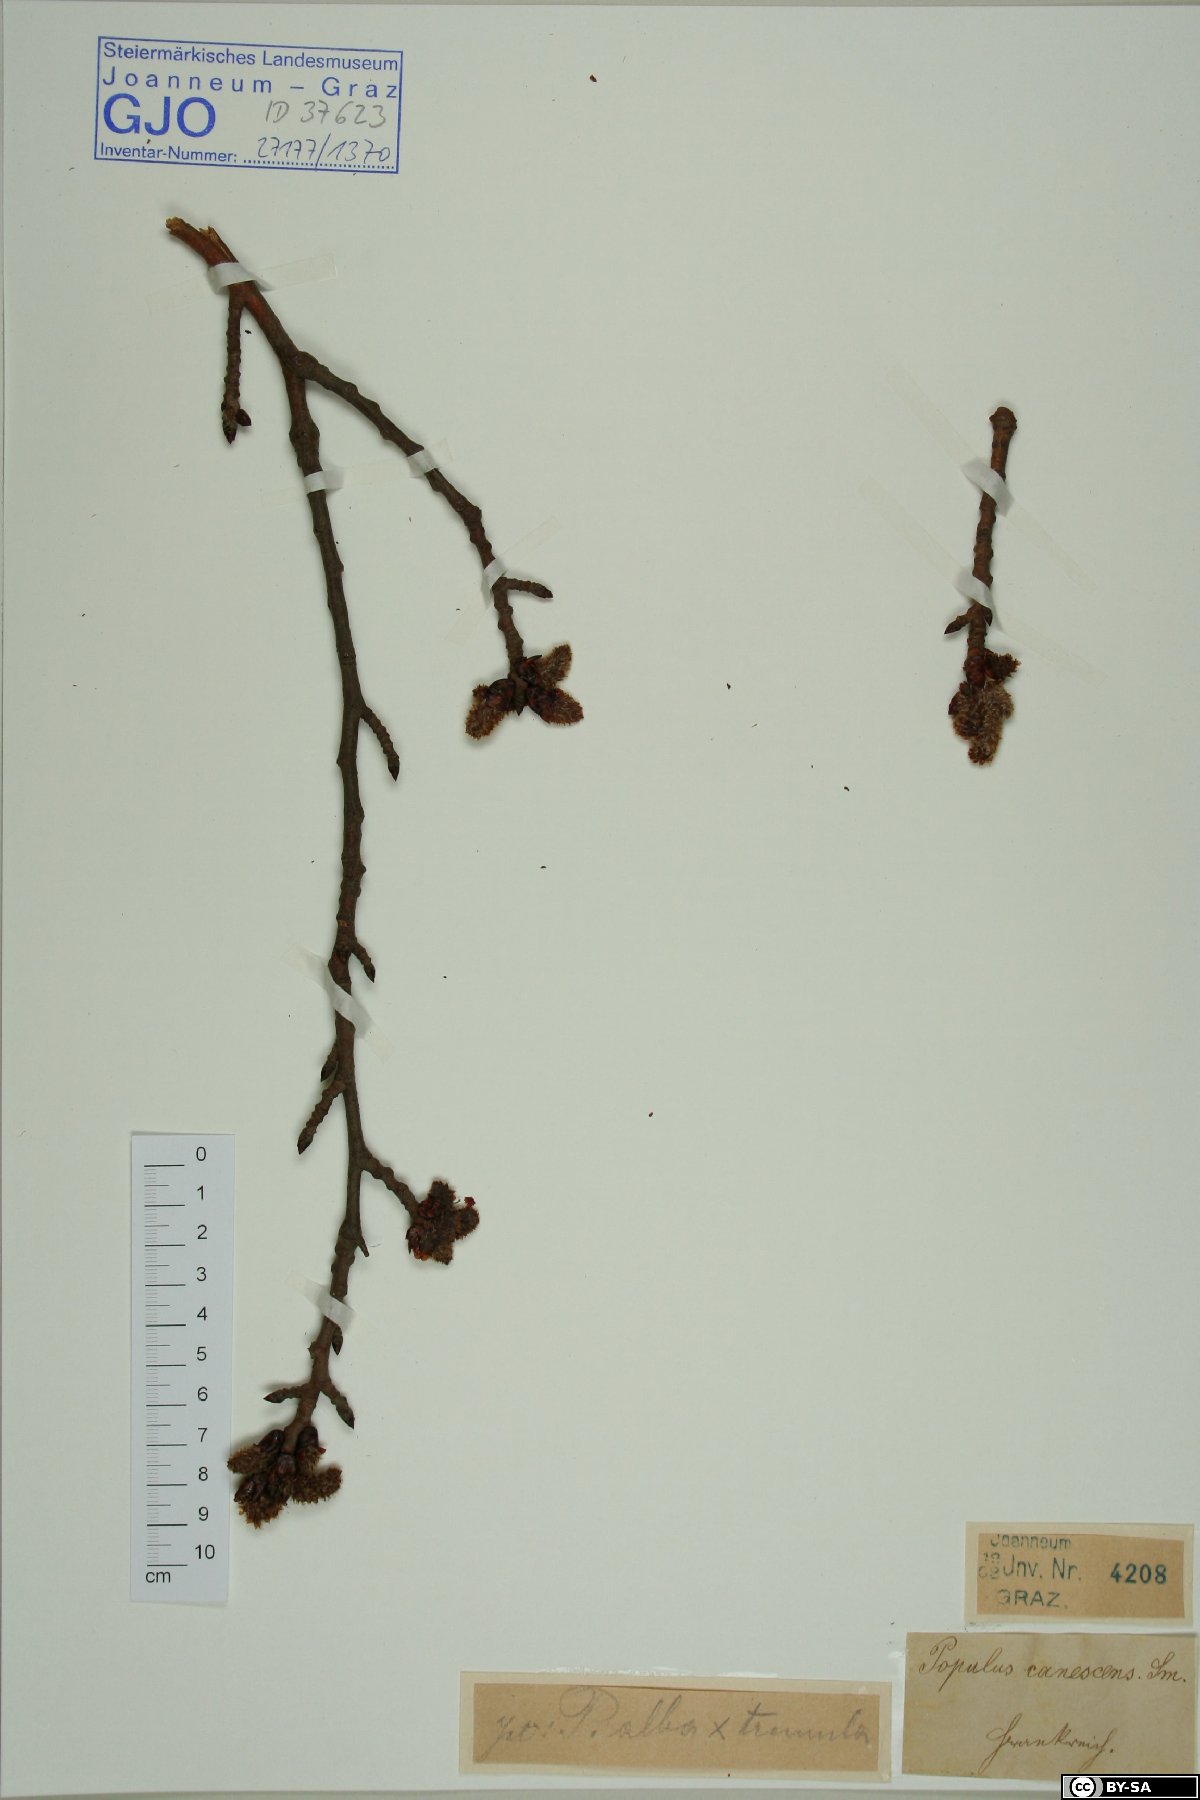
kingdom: Plantae
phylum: Tracheophyta
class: Magnoliopsida
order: Malpighiales
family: Salicaceae
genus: Populus
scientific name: Populus canescens
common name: Gray poplar
